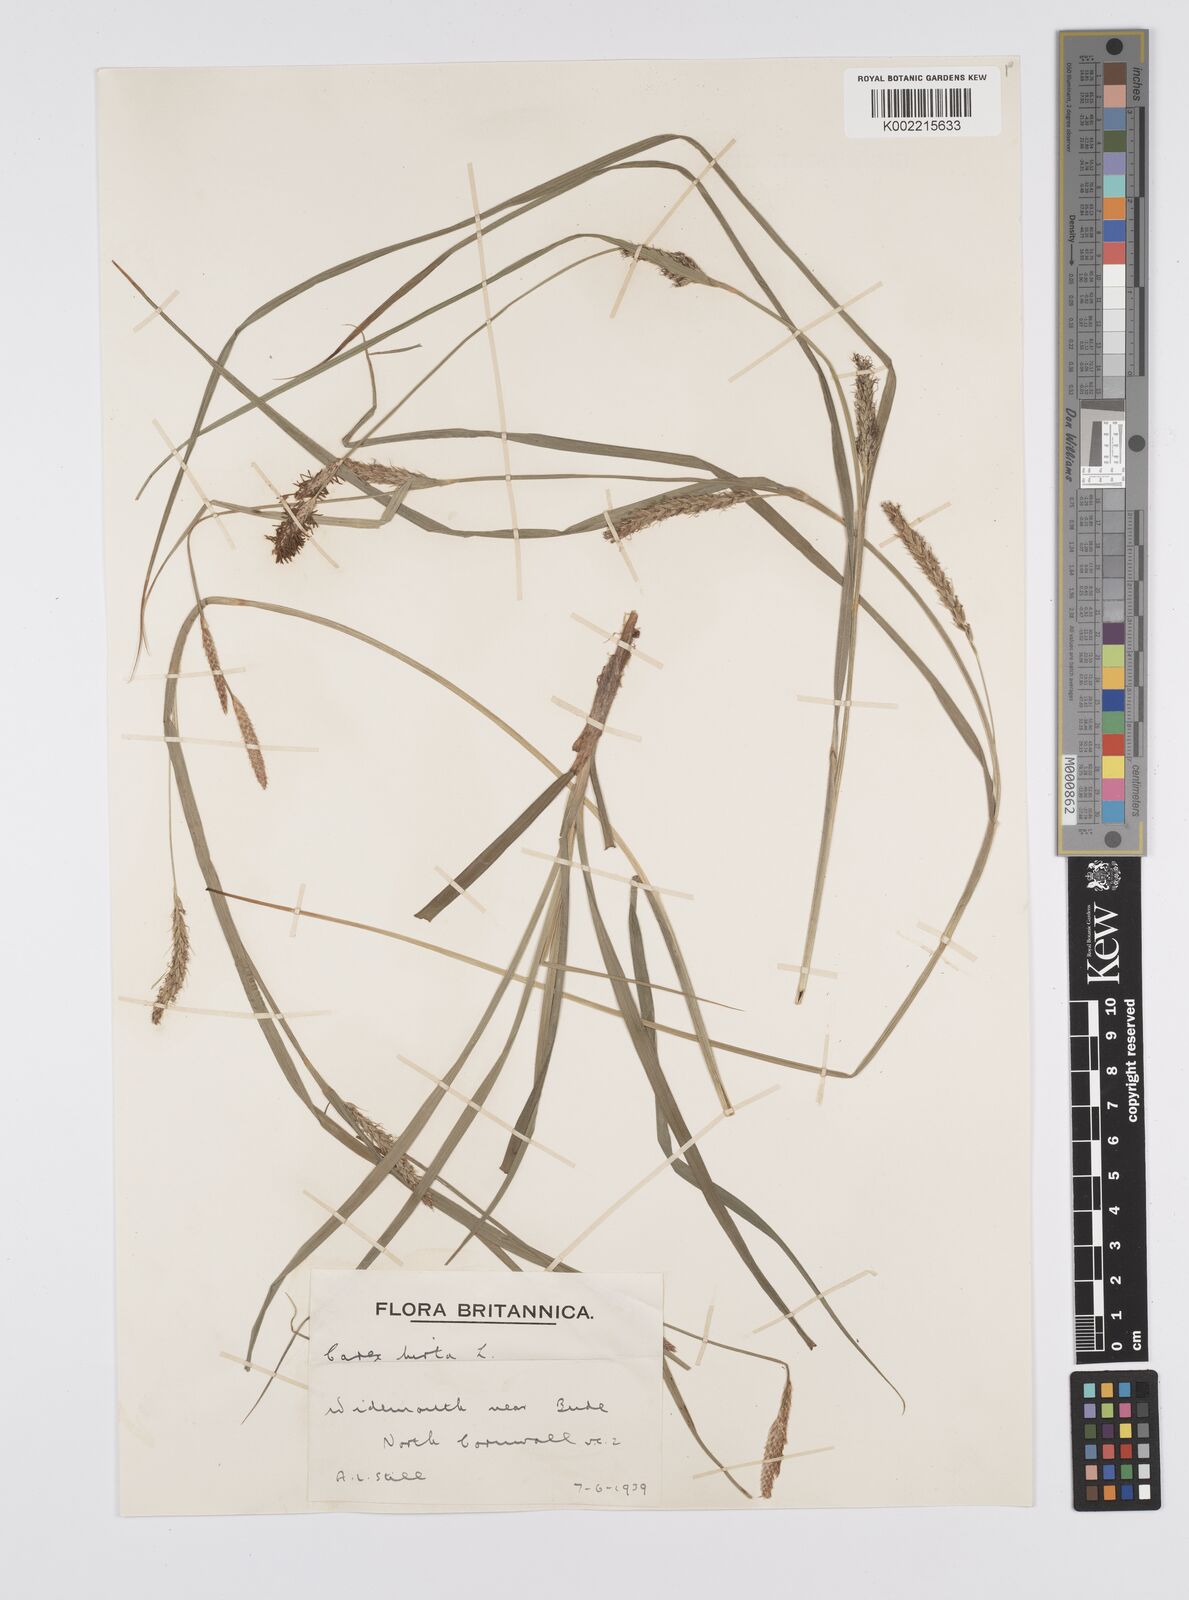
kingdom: Plantae
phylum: Tracheophyta
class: Liliopsida
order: Poales
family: Cyperaceae
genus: Carex
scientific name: Carex hirta
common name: Hairy sedge
